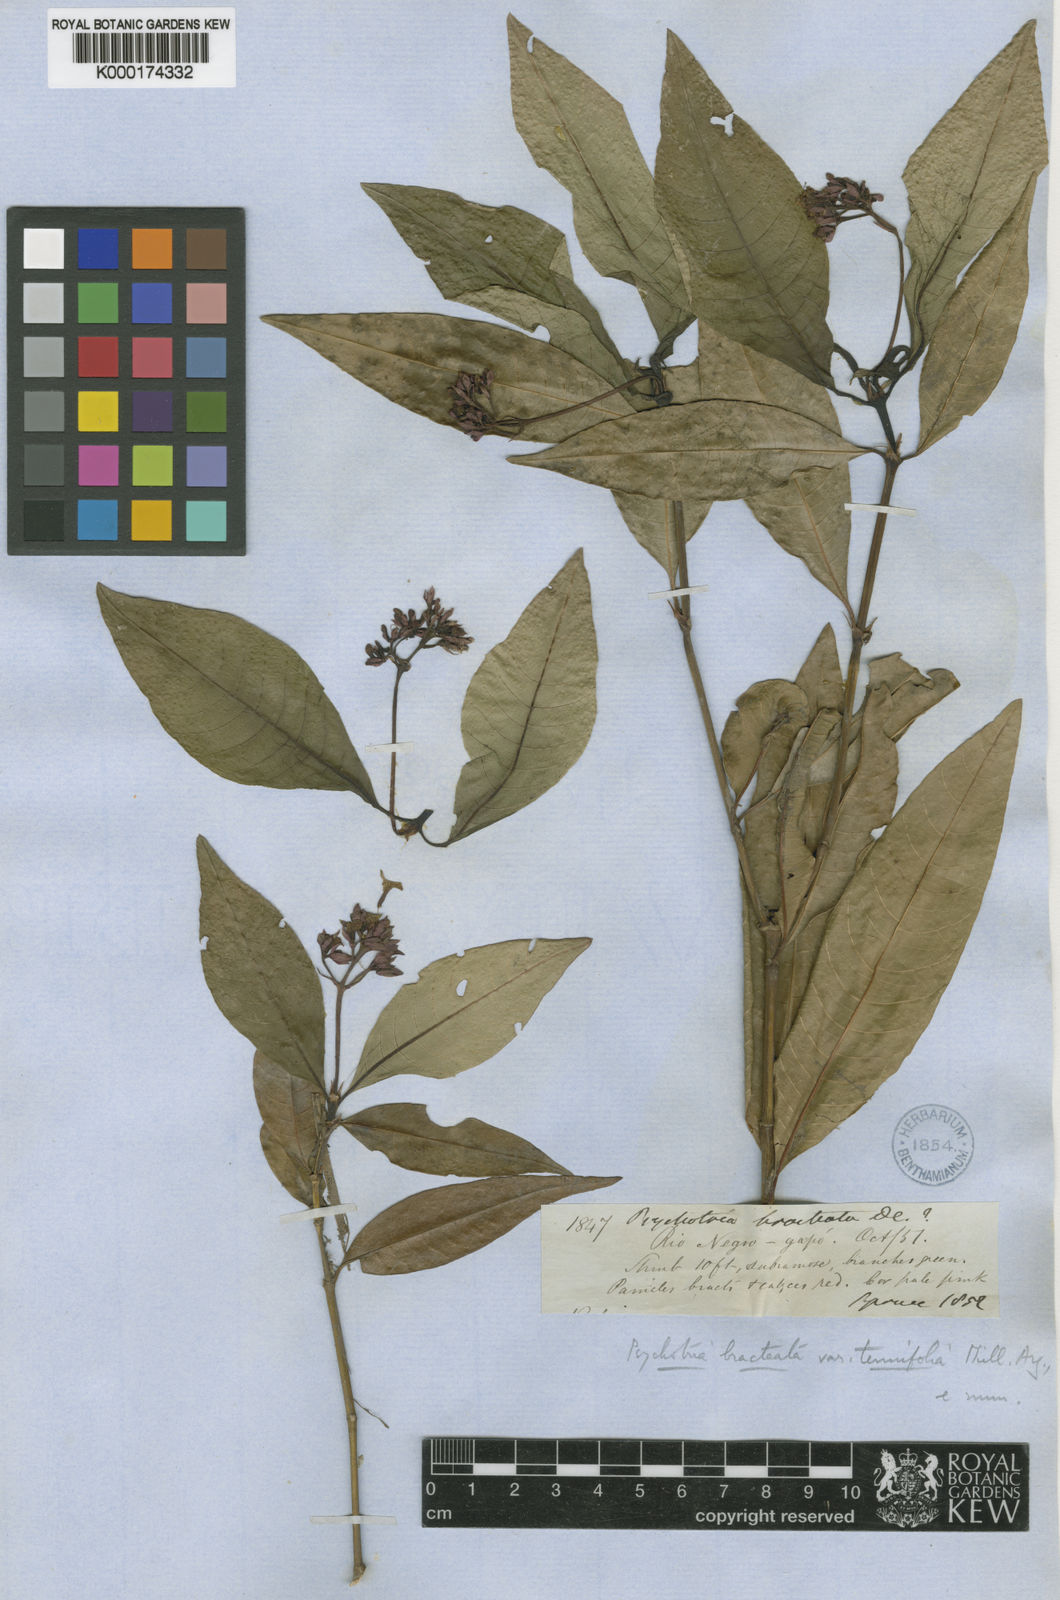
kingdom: Plantae
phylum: Tracheophyta
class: Magnoliopsida
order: Gentianales
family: Rubiaceae
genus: Palicourea
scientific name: Palicourea maguireorum
